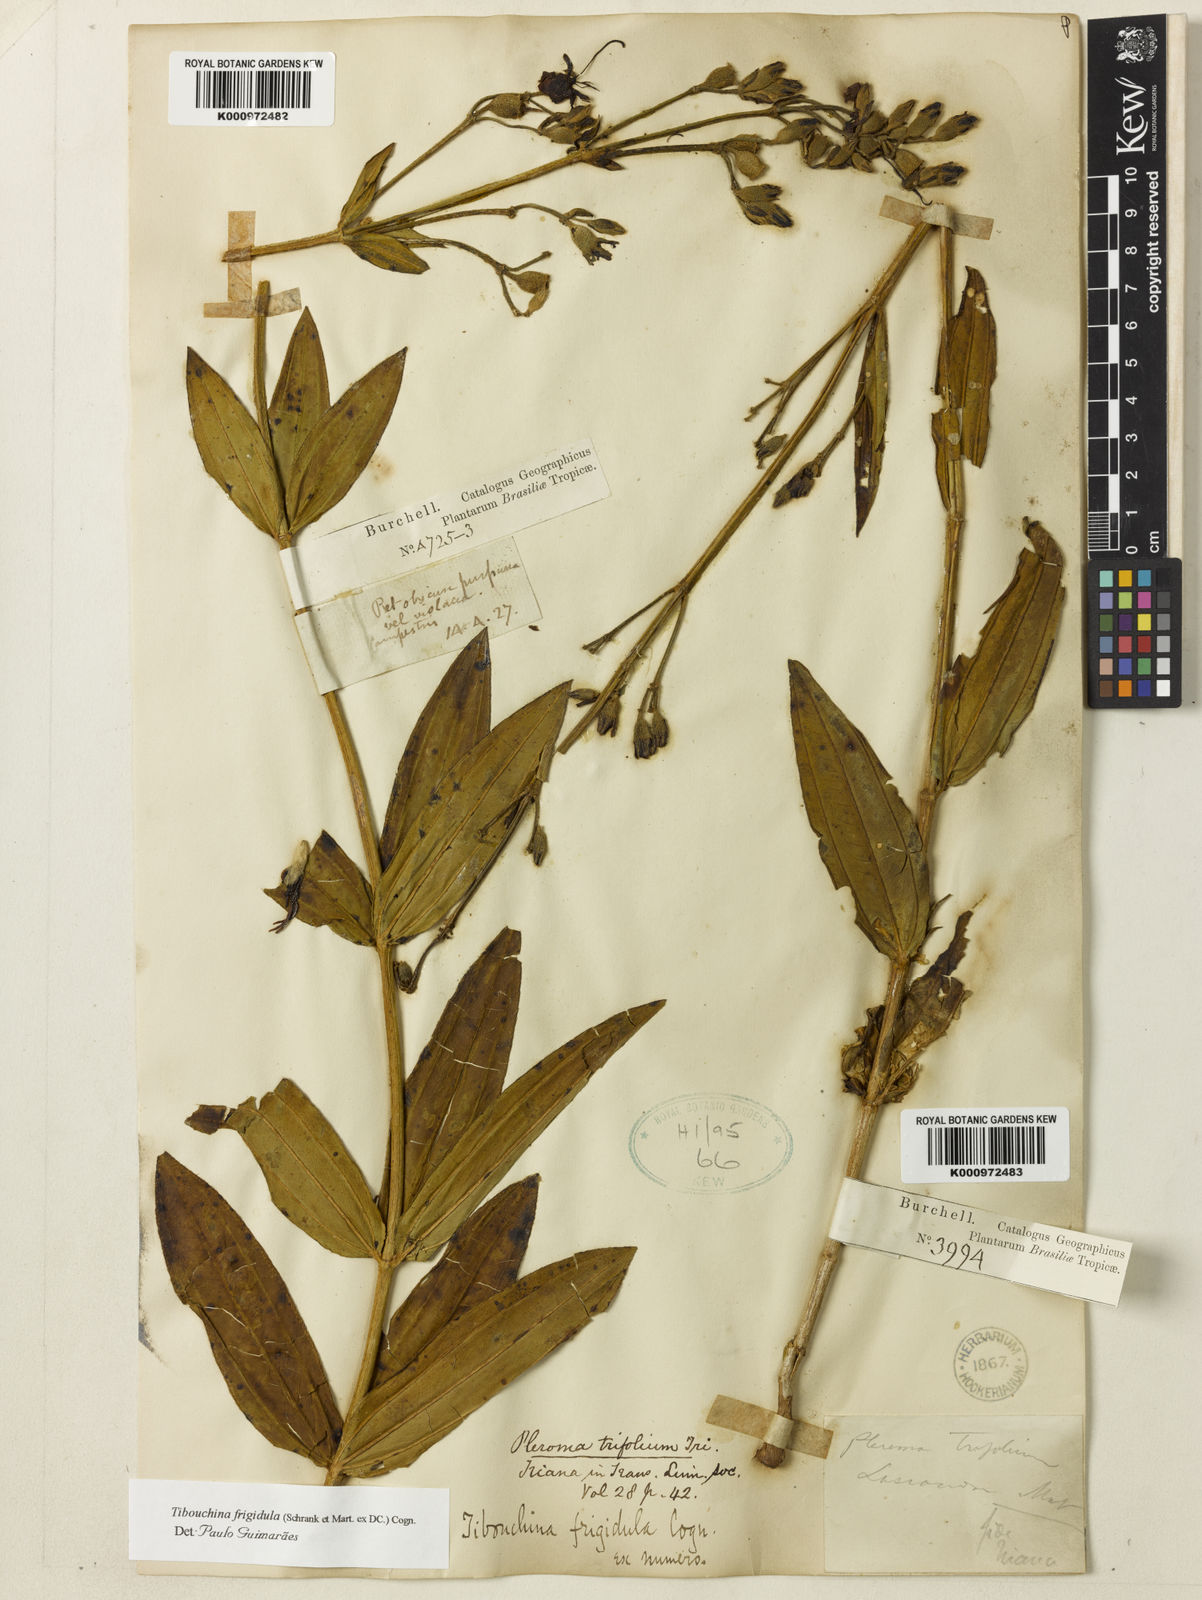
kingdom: Plantae
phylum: Tracheophyta
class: Magnoliopsida
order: Myrtales
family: Melastomataceae
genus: Pleroma
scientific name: Pleroma martiusianum
